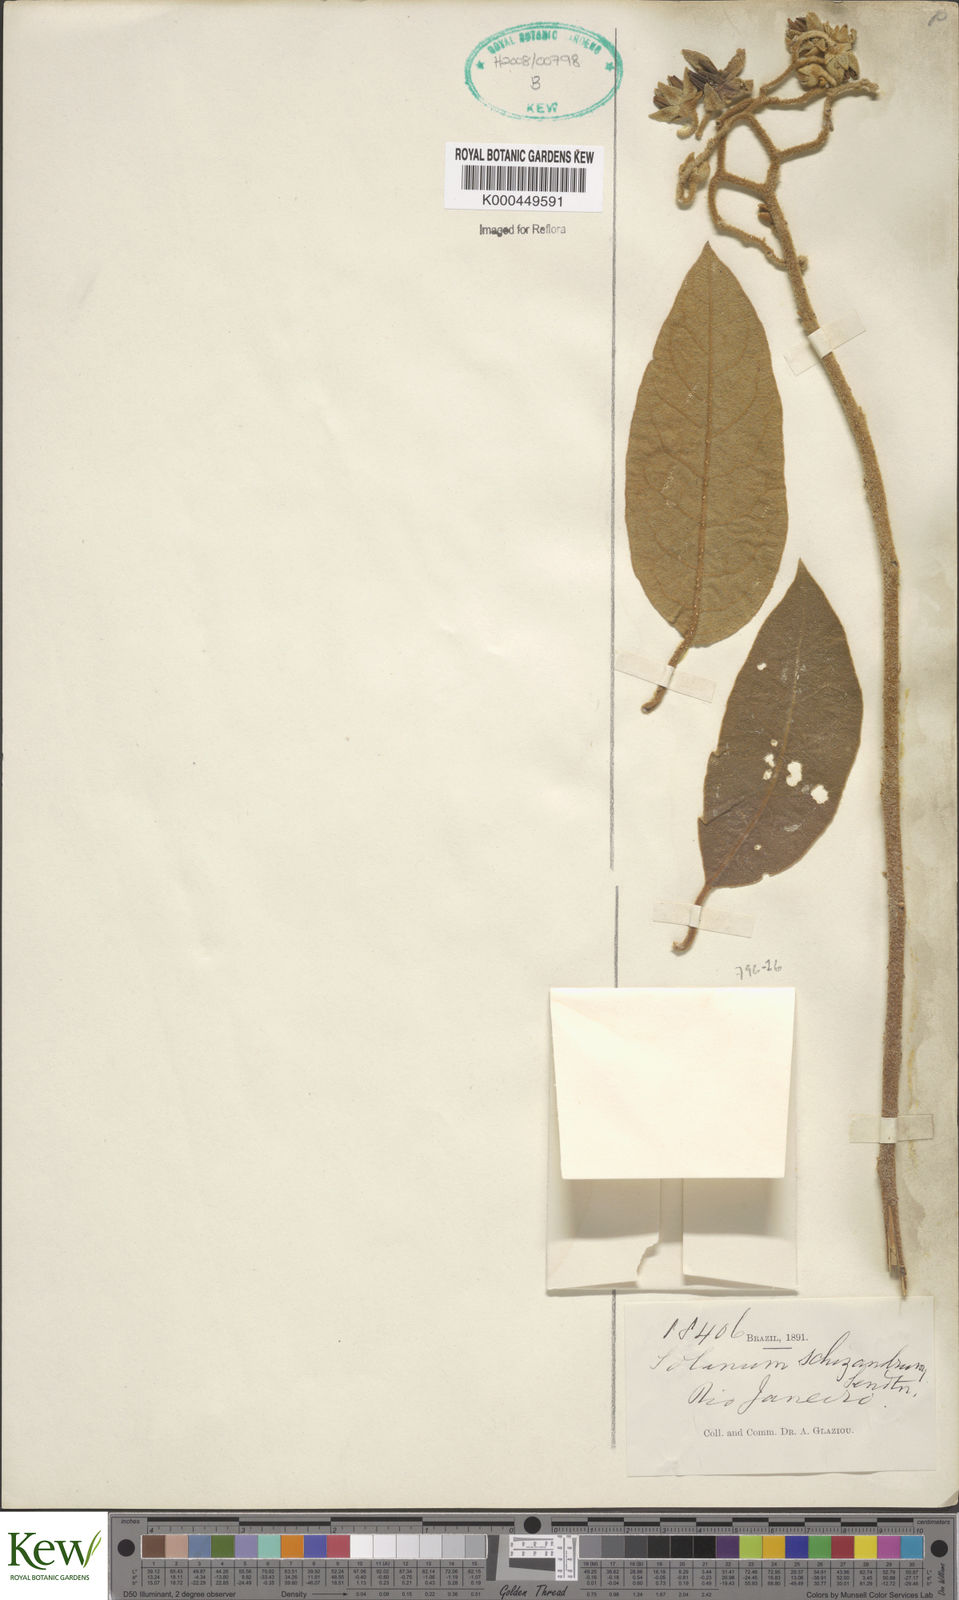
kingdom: Plantae
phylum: Tracheophyta
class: Magnoliopsida
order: Solanales
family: Solanaceae
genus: Solanum
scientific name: Solanum schizandrum
